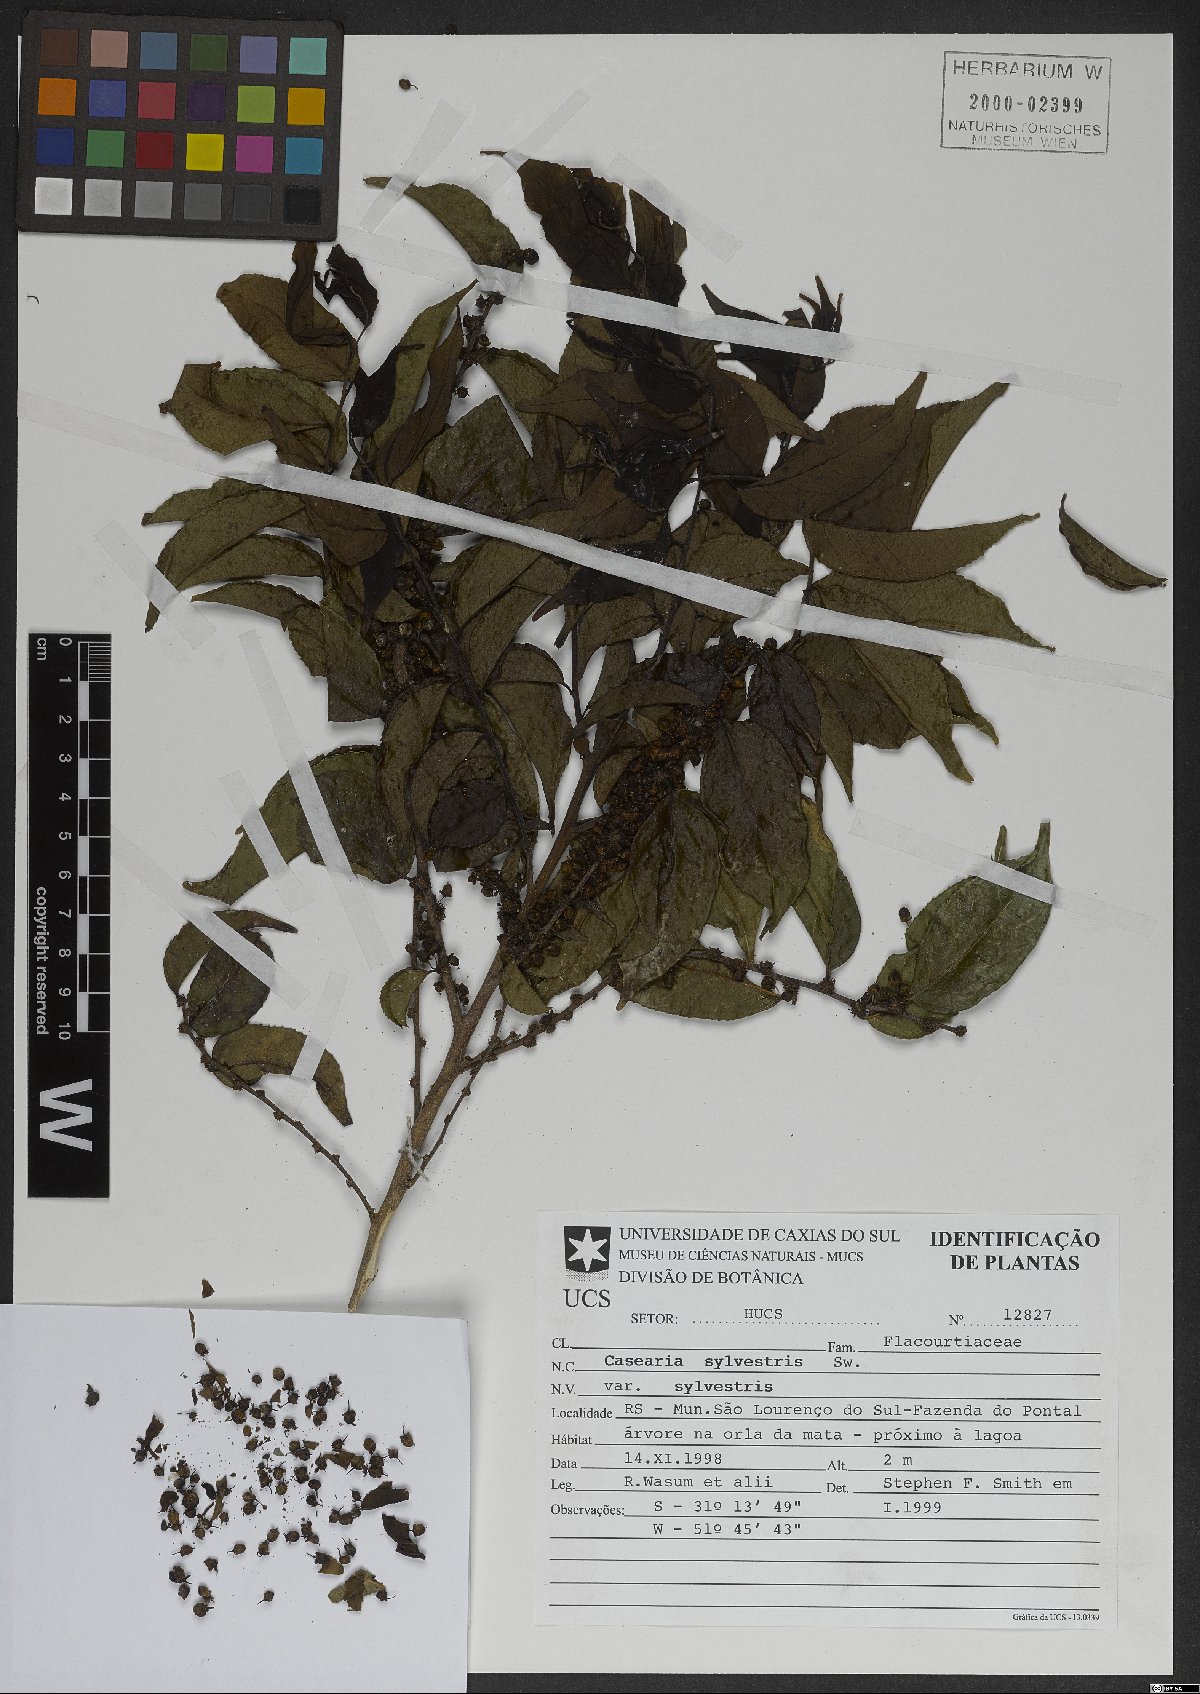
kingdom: Plantae
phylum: Tracheophyta
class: Magnoliopsida
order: Malpighiales
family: Salicaceae
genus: Casearia
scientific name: Casearia sylvestris
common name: Wild sage
